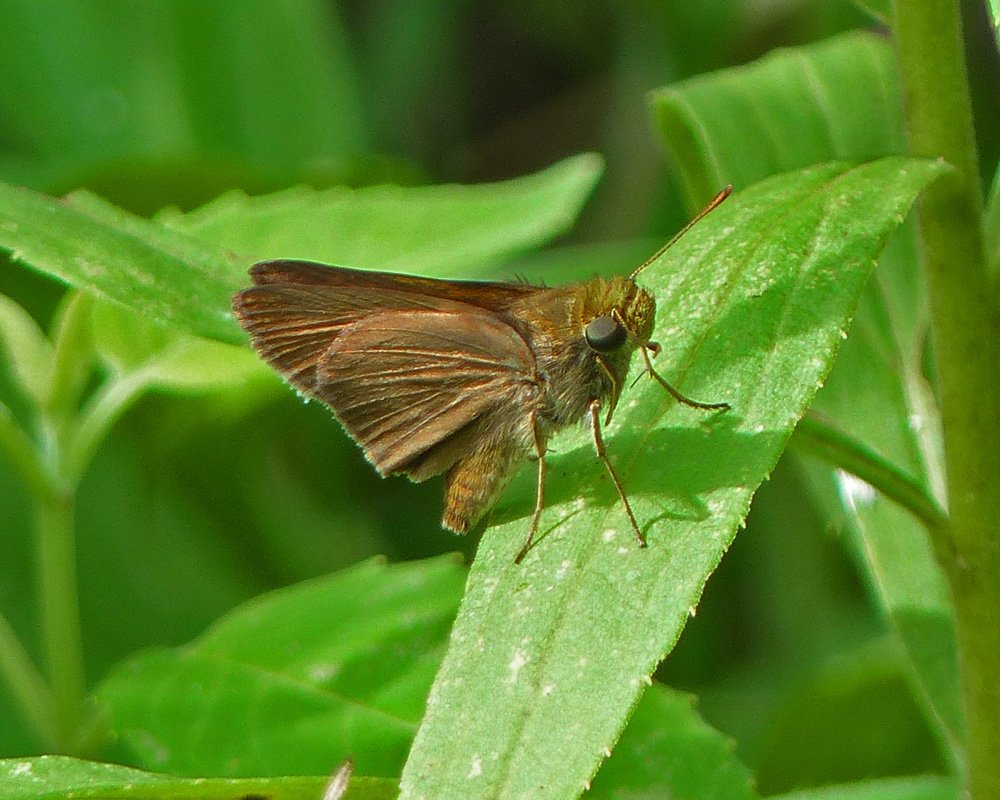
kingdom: Animalia
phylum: Arthropoda
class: Insecta
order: Lepidoptera
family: Hesperiidae
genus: Euphyes
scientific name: Euphyes vestris
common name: Dun Skipper
